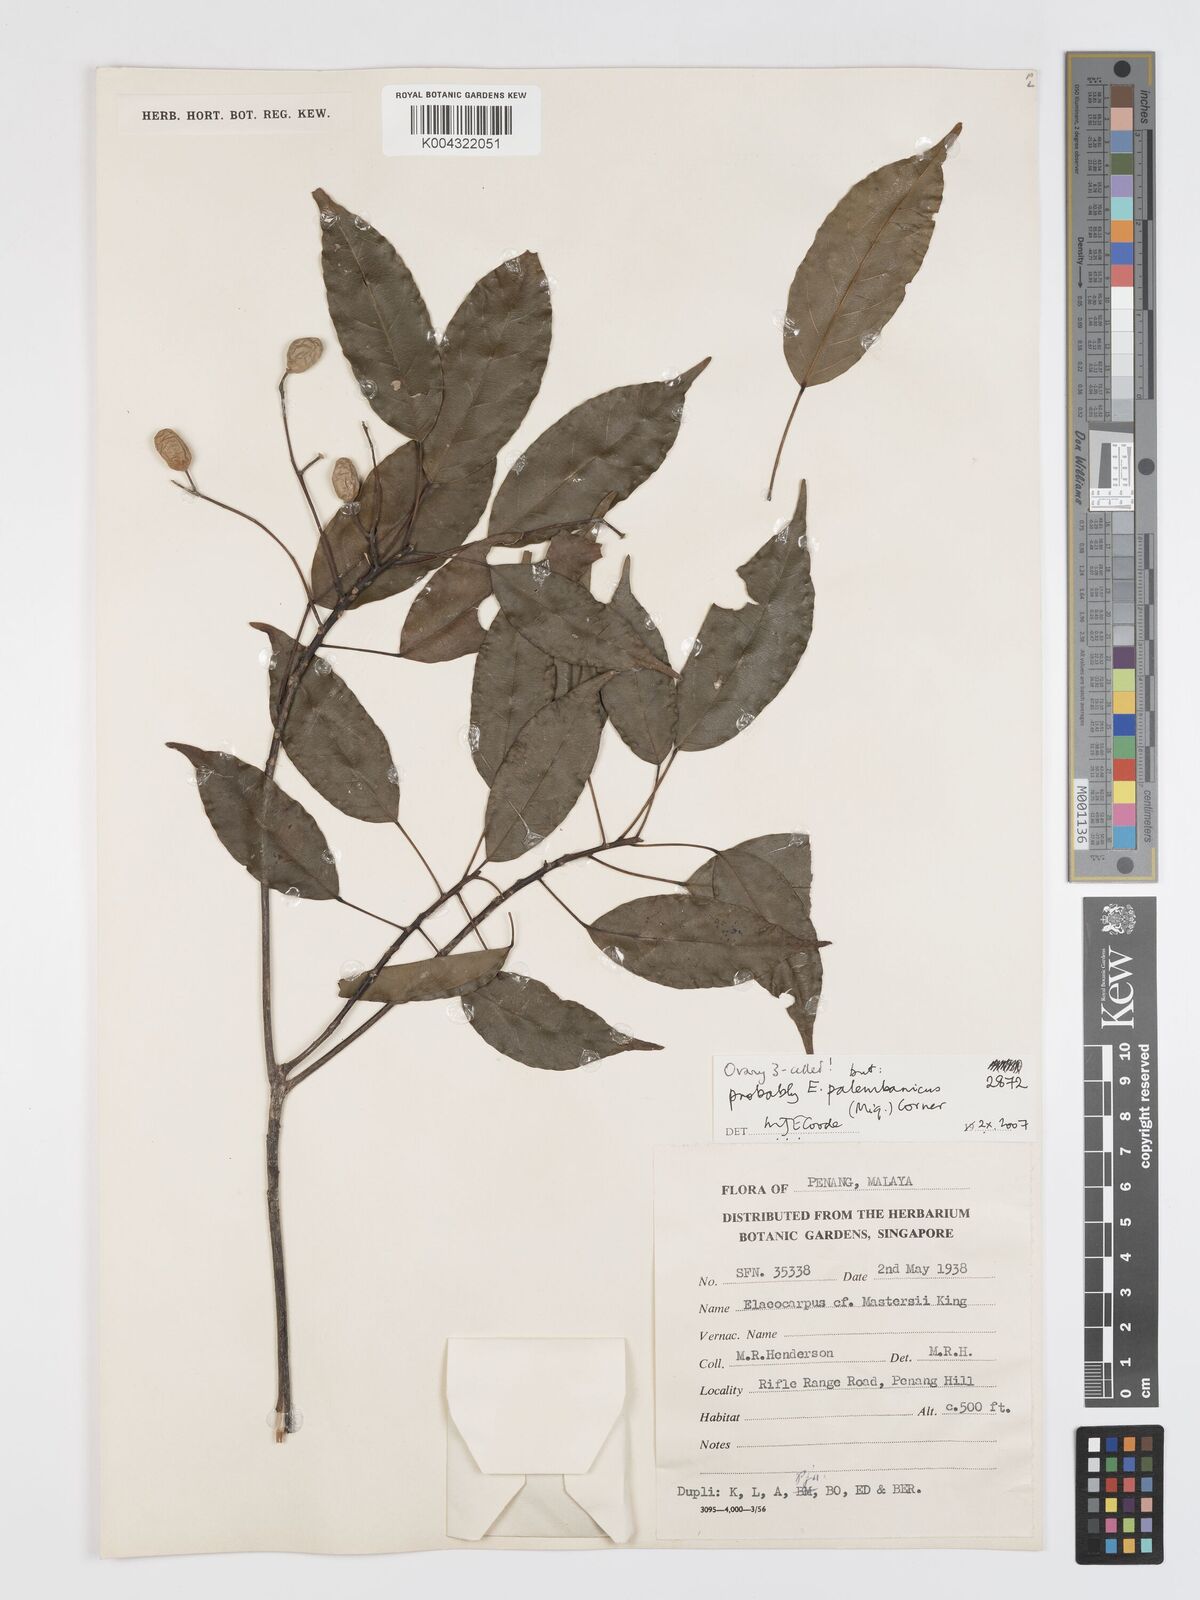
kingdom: Plantae
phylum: Tracheophyta
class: Magnoliopsida
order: Oxalidales
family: Elaeocarpaceae
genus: Elaeocarpus
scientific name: Elaeocarpus palembanicus
